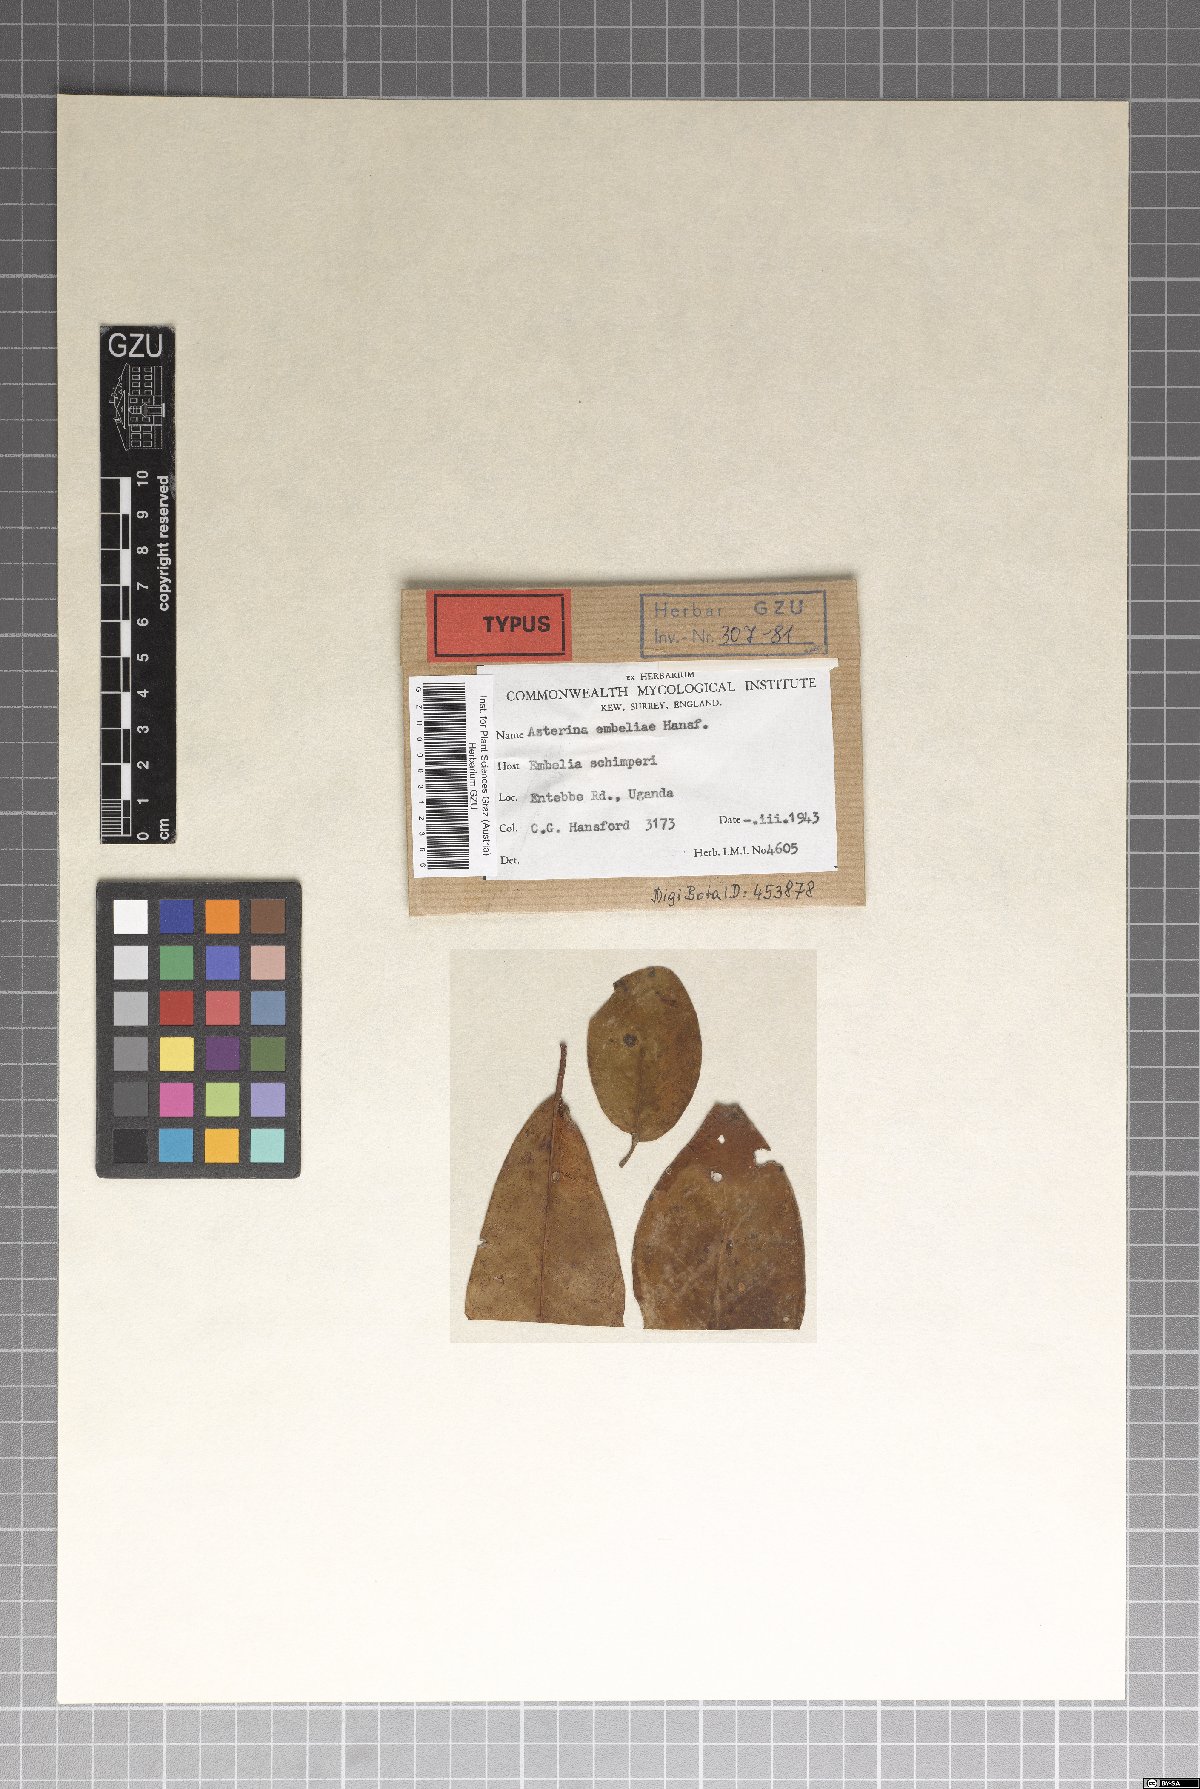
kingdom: Fungi
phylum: Ascomycota
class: Dothideomycetes
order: Asterinales
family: Asterinaceae
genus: Asterina
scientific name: Asterina embeliae
